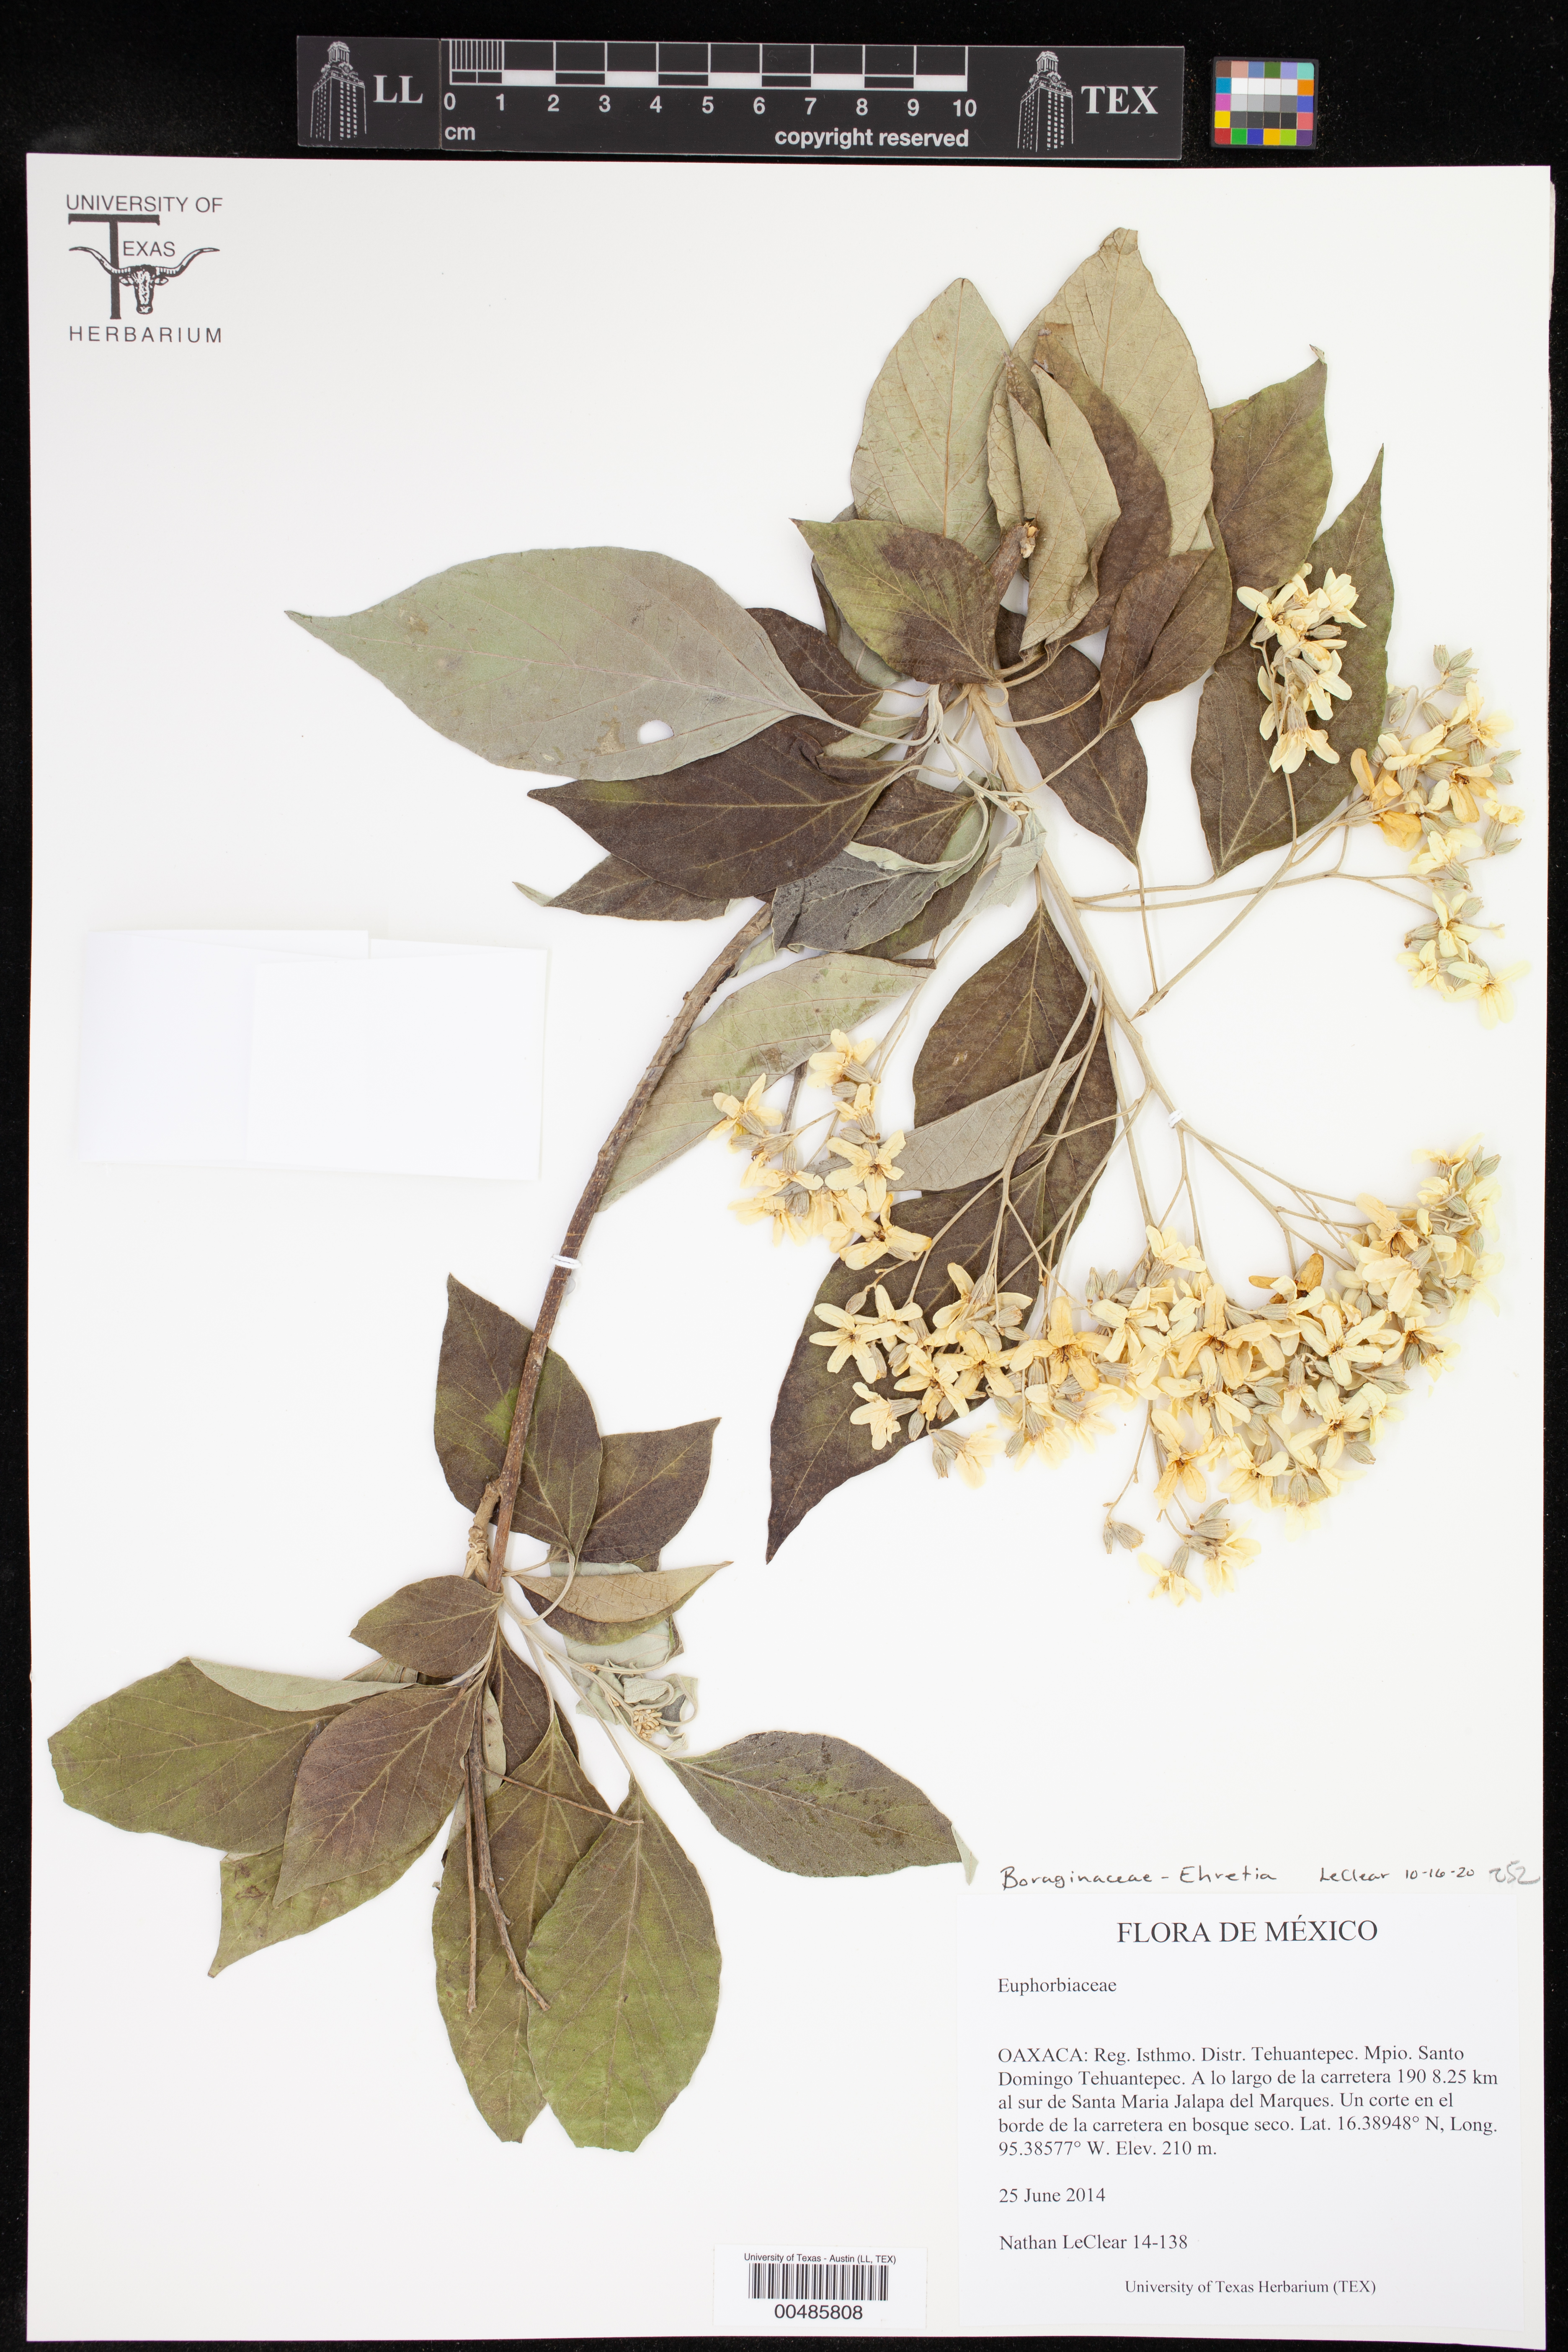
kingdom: Plantae
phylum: Tracheophyta
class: Magnoliopsida
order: Boraginales
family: Ehretiaceae
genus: Ehretia
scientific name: Ehretia
